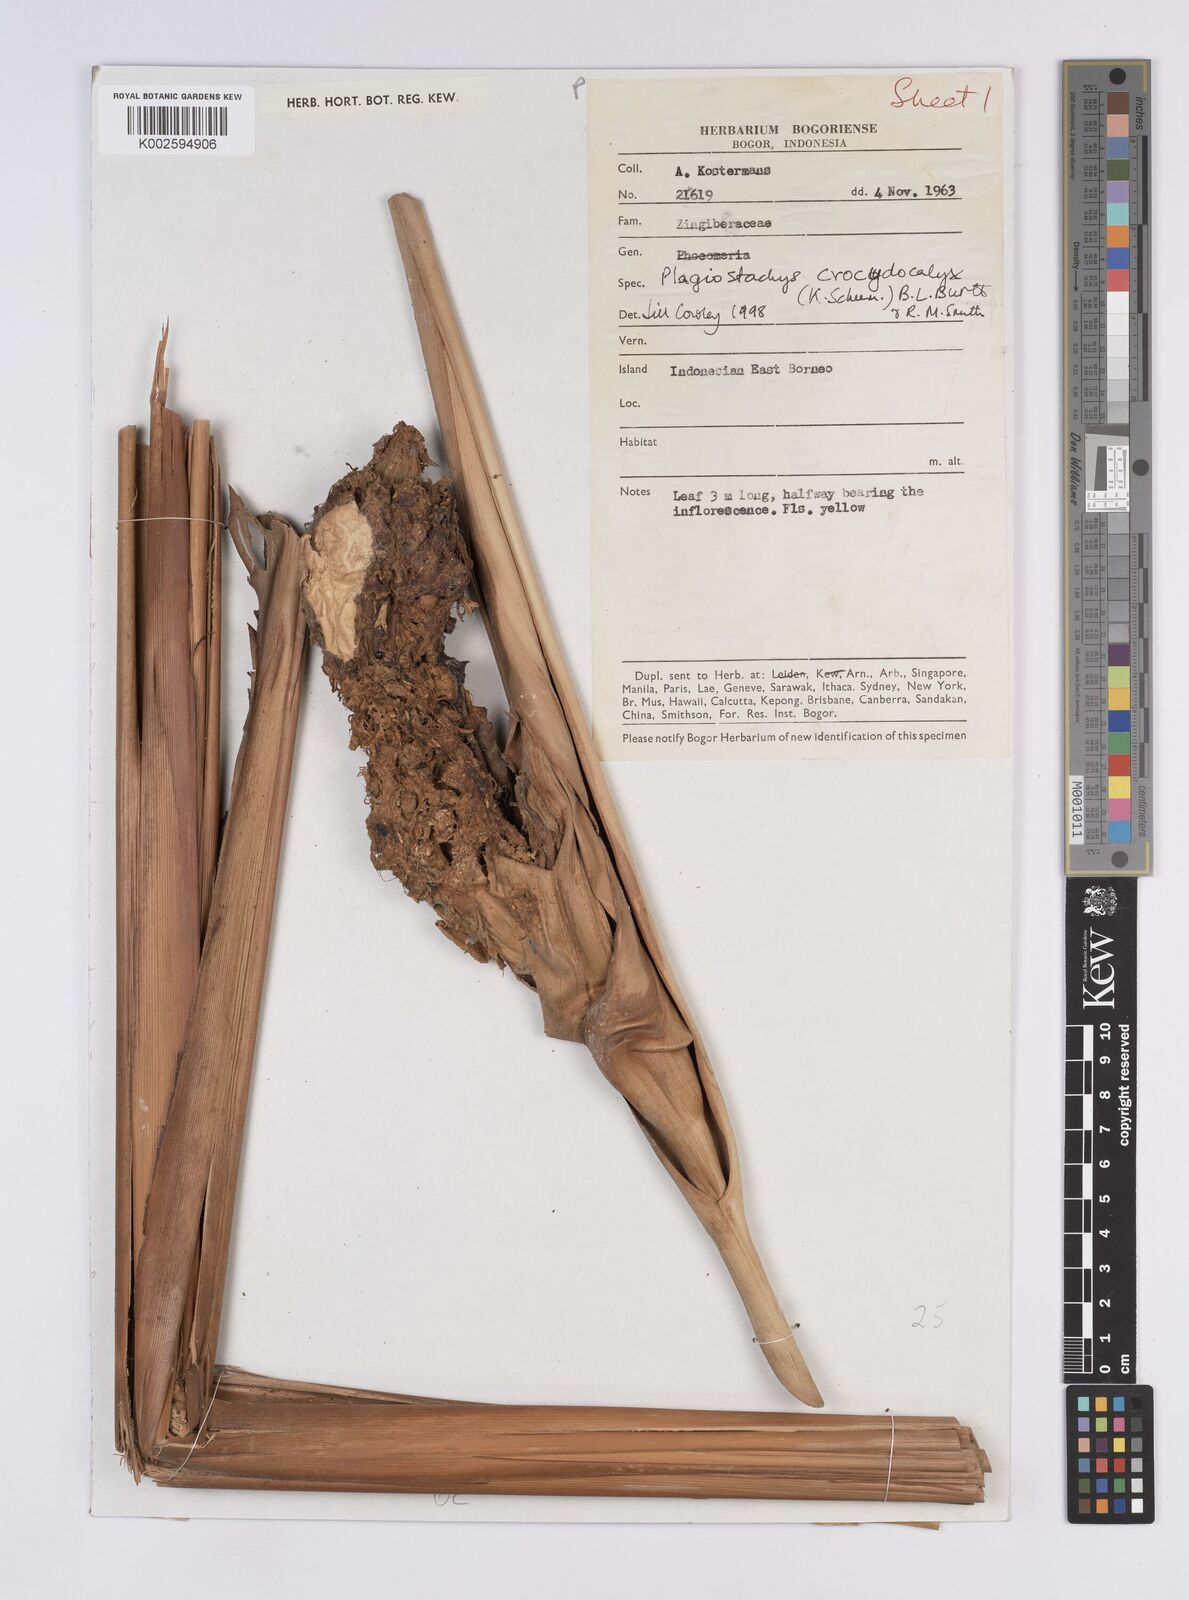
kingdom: Plantae
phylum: Tracheophyta
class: Liliopsida
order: Zingiberales
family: Zingiberaceae
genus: Plagiostachys
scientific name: Plagiostachys crocydocalyx
